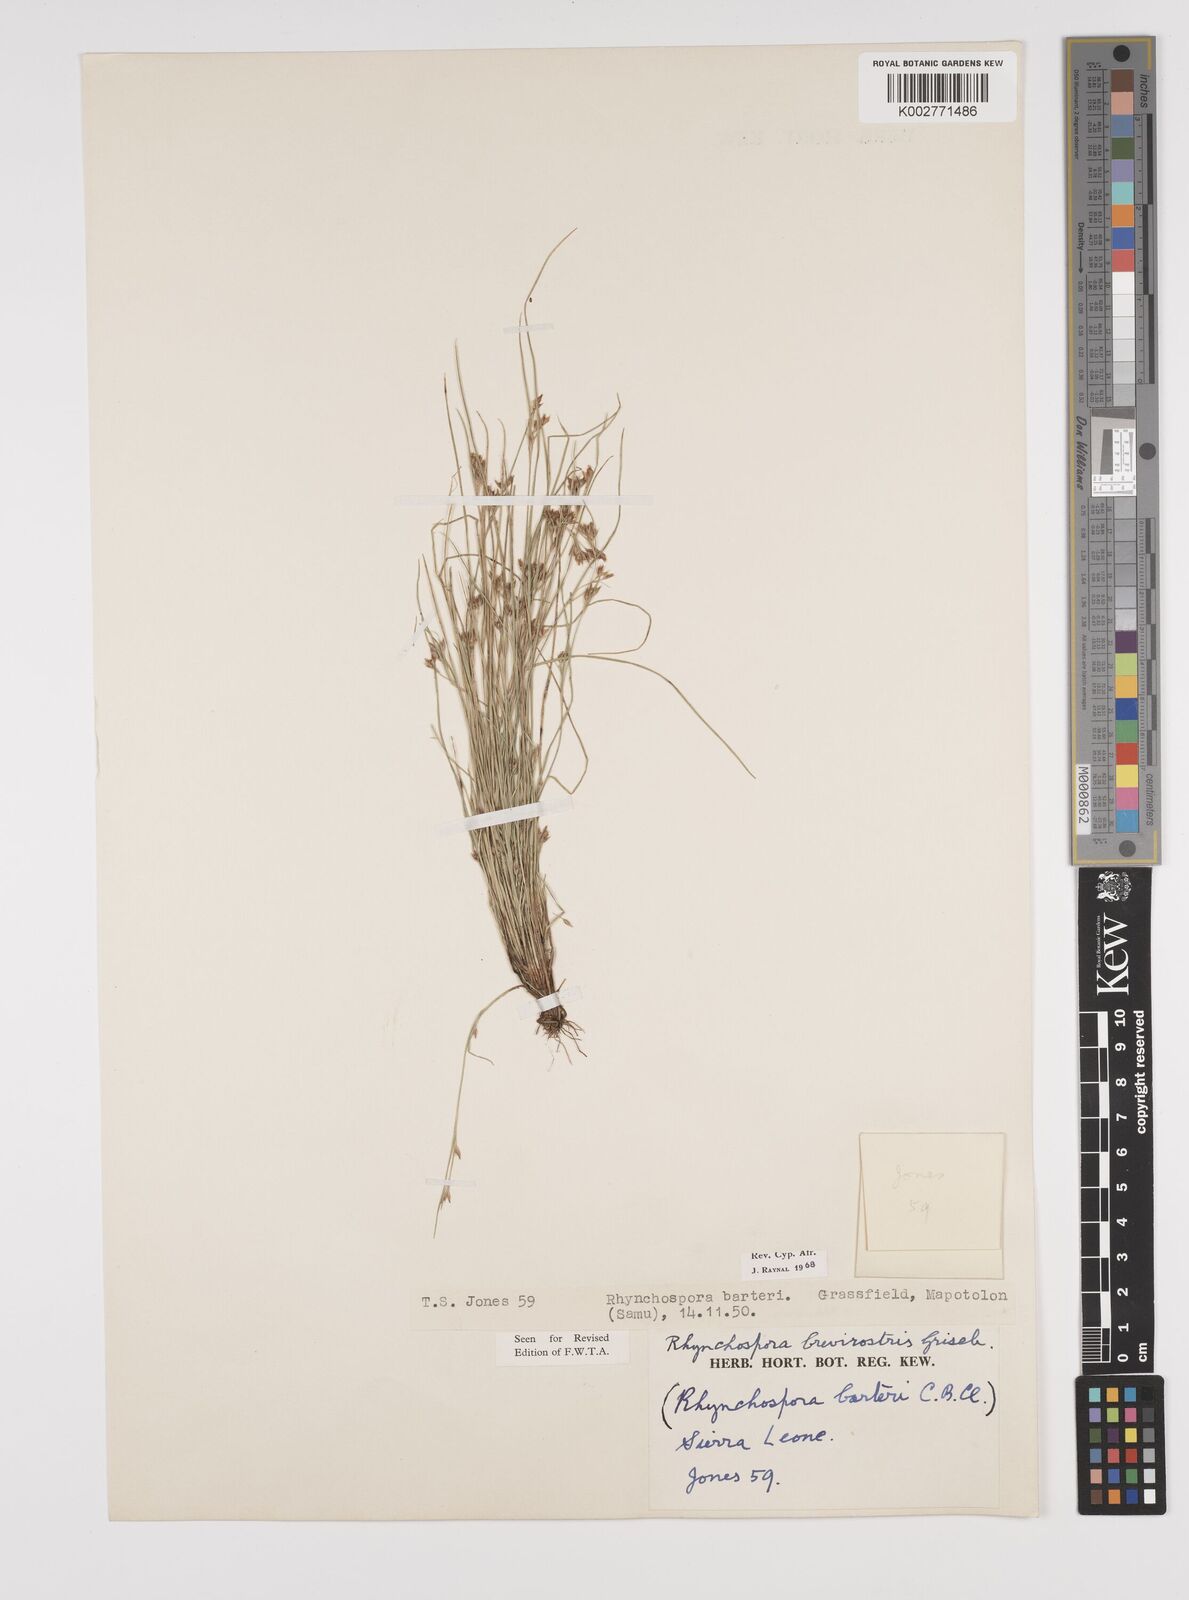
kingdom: Plantae
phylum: Tracheophyta
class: Liliopsida
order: Poales
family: Cyperaceae
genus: Rhynchospora
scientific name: Rhynchospora brevirostris
